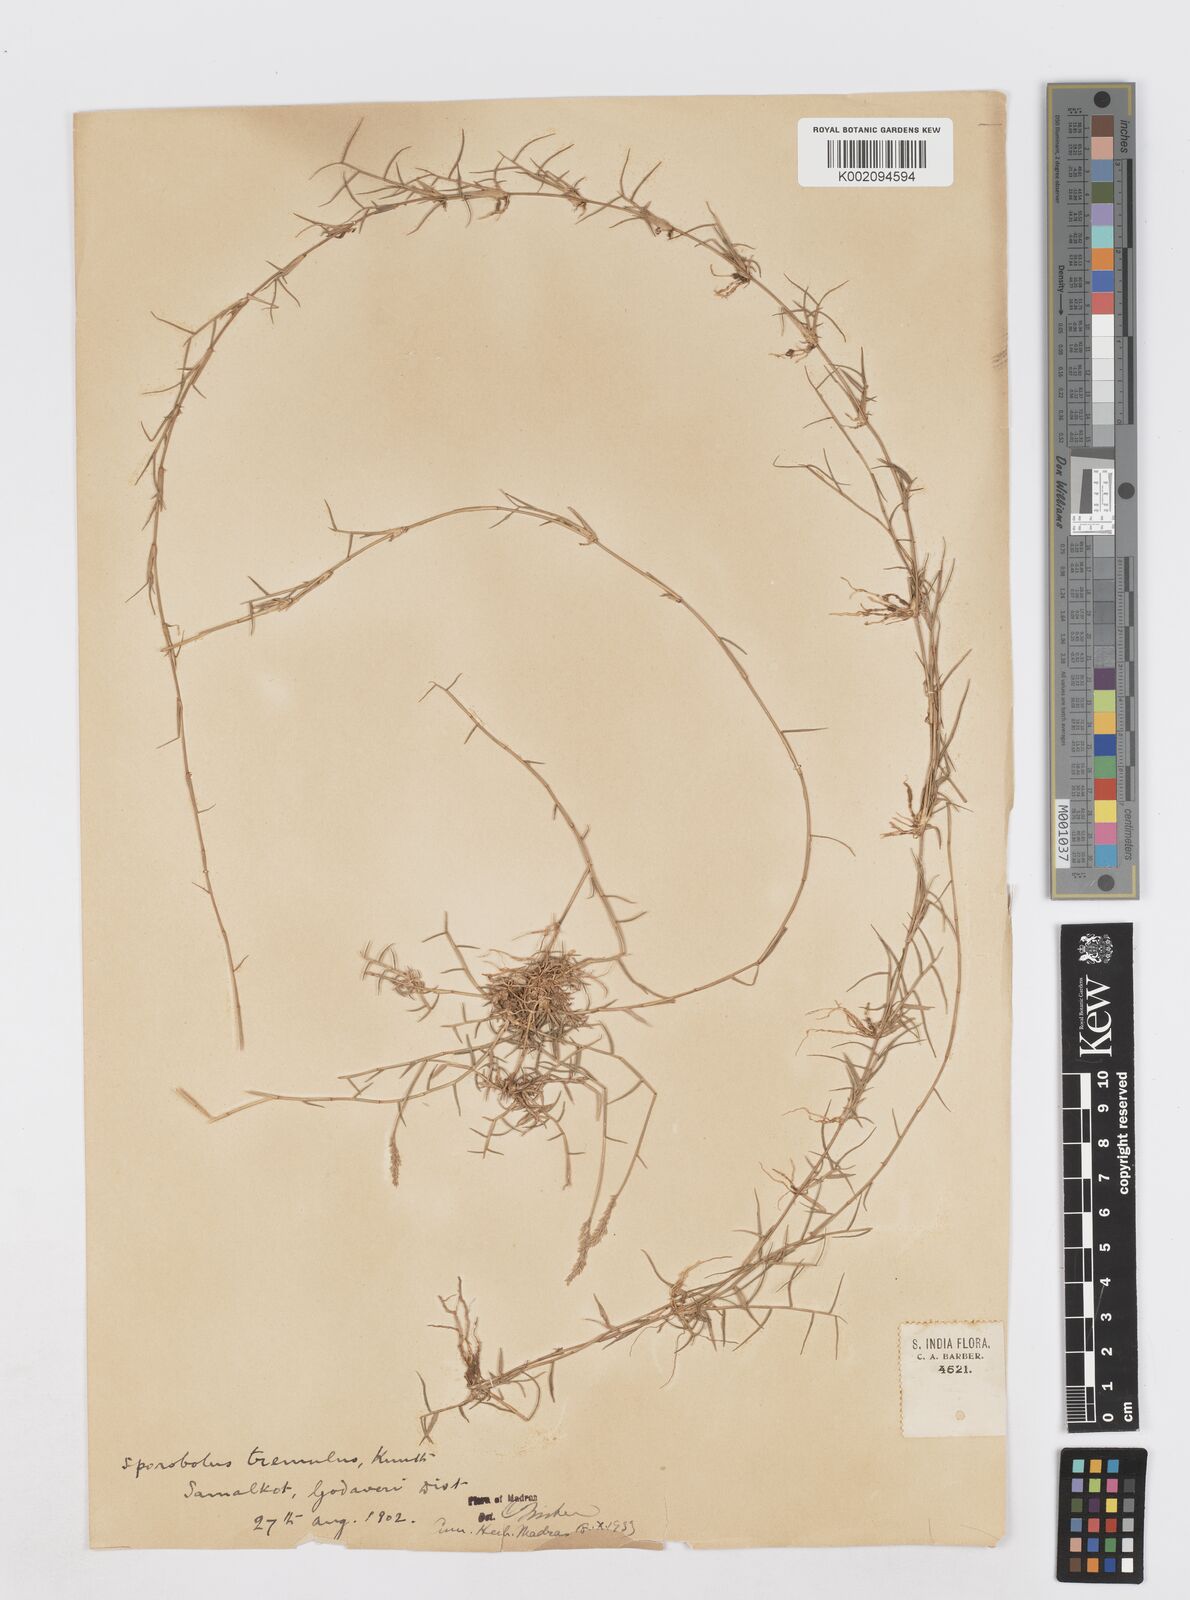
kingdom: Plantae
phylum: Tracheophyta
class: Liliopsida
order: Poales
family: Poaceae
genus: Sporobolus
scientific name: Sporobolus virginicus
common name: Beach dropseed
